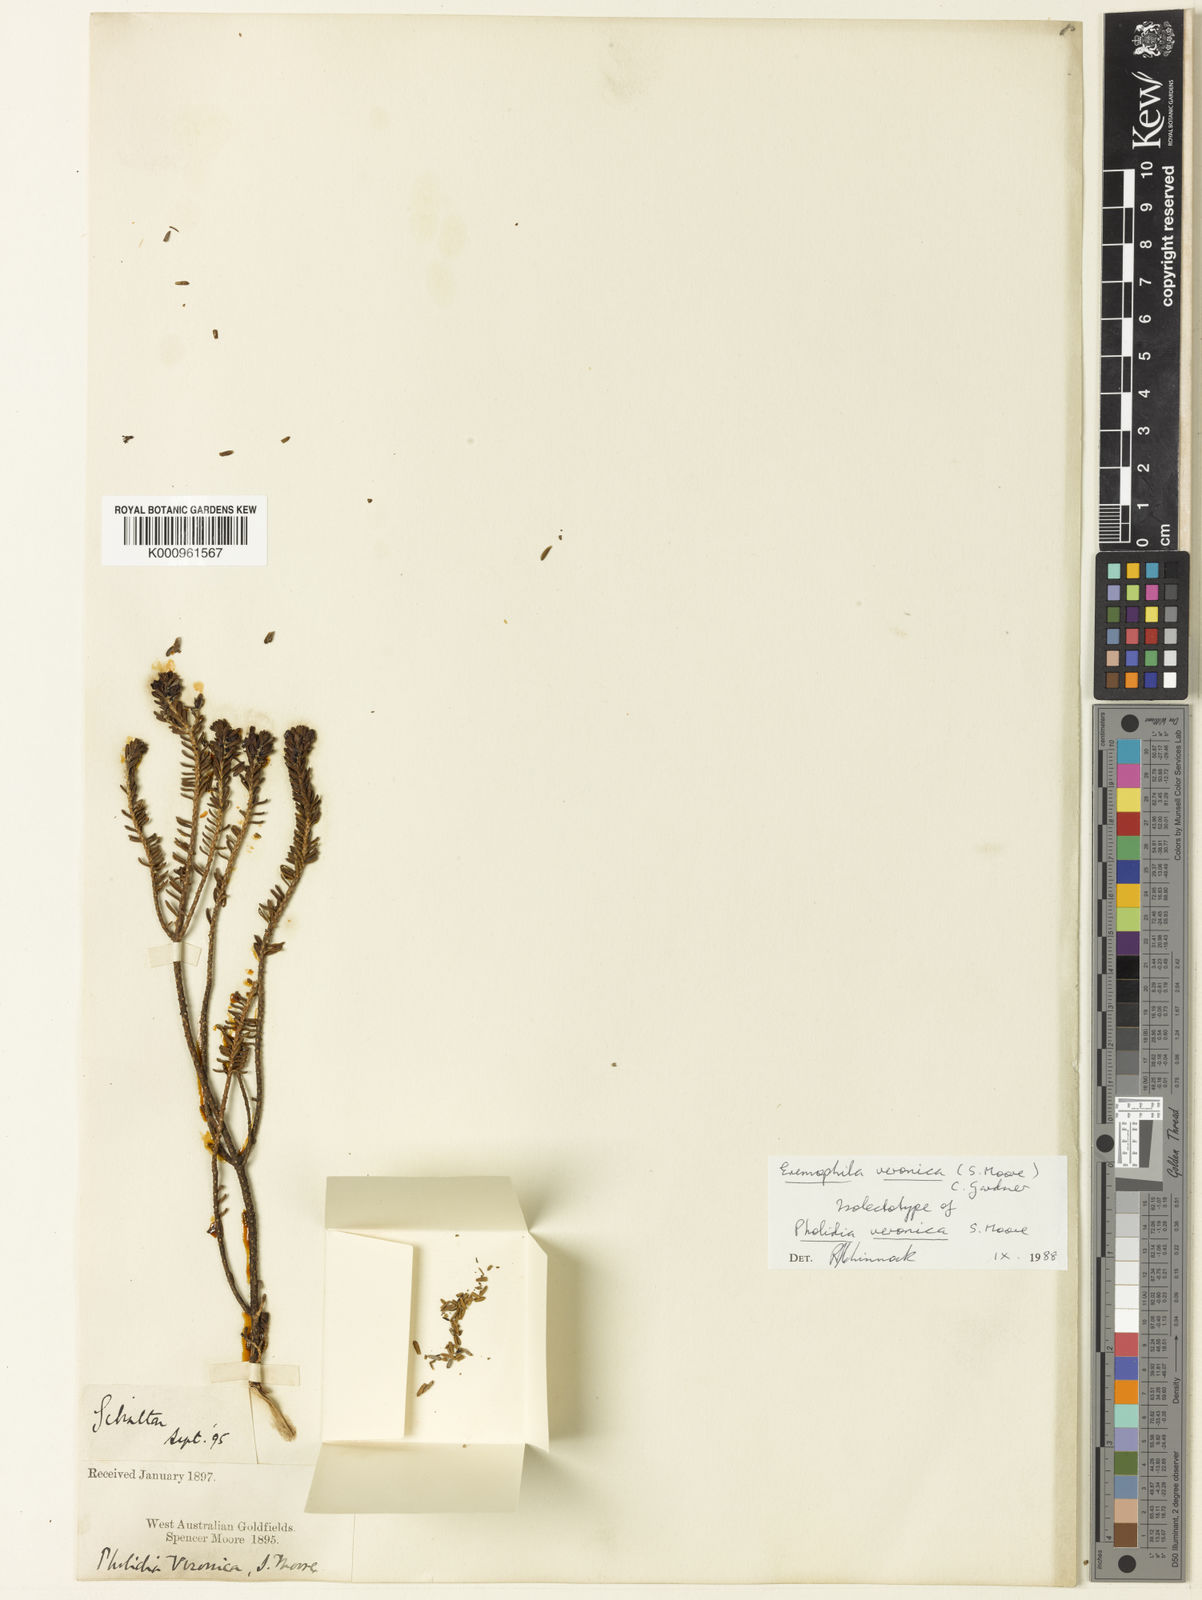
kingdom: Plantae
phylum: Tracheophyta
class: Magnoliopsida
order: Lamiales
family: Scrophulariaceae
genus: Eremophila
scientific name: Eremophila veronica
